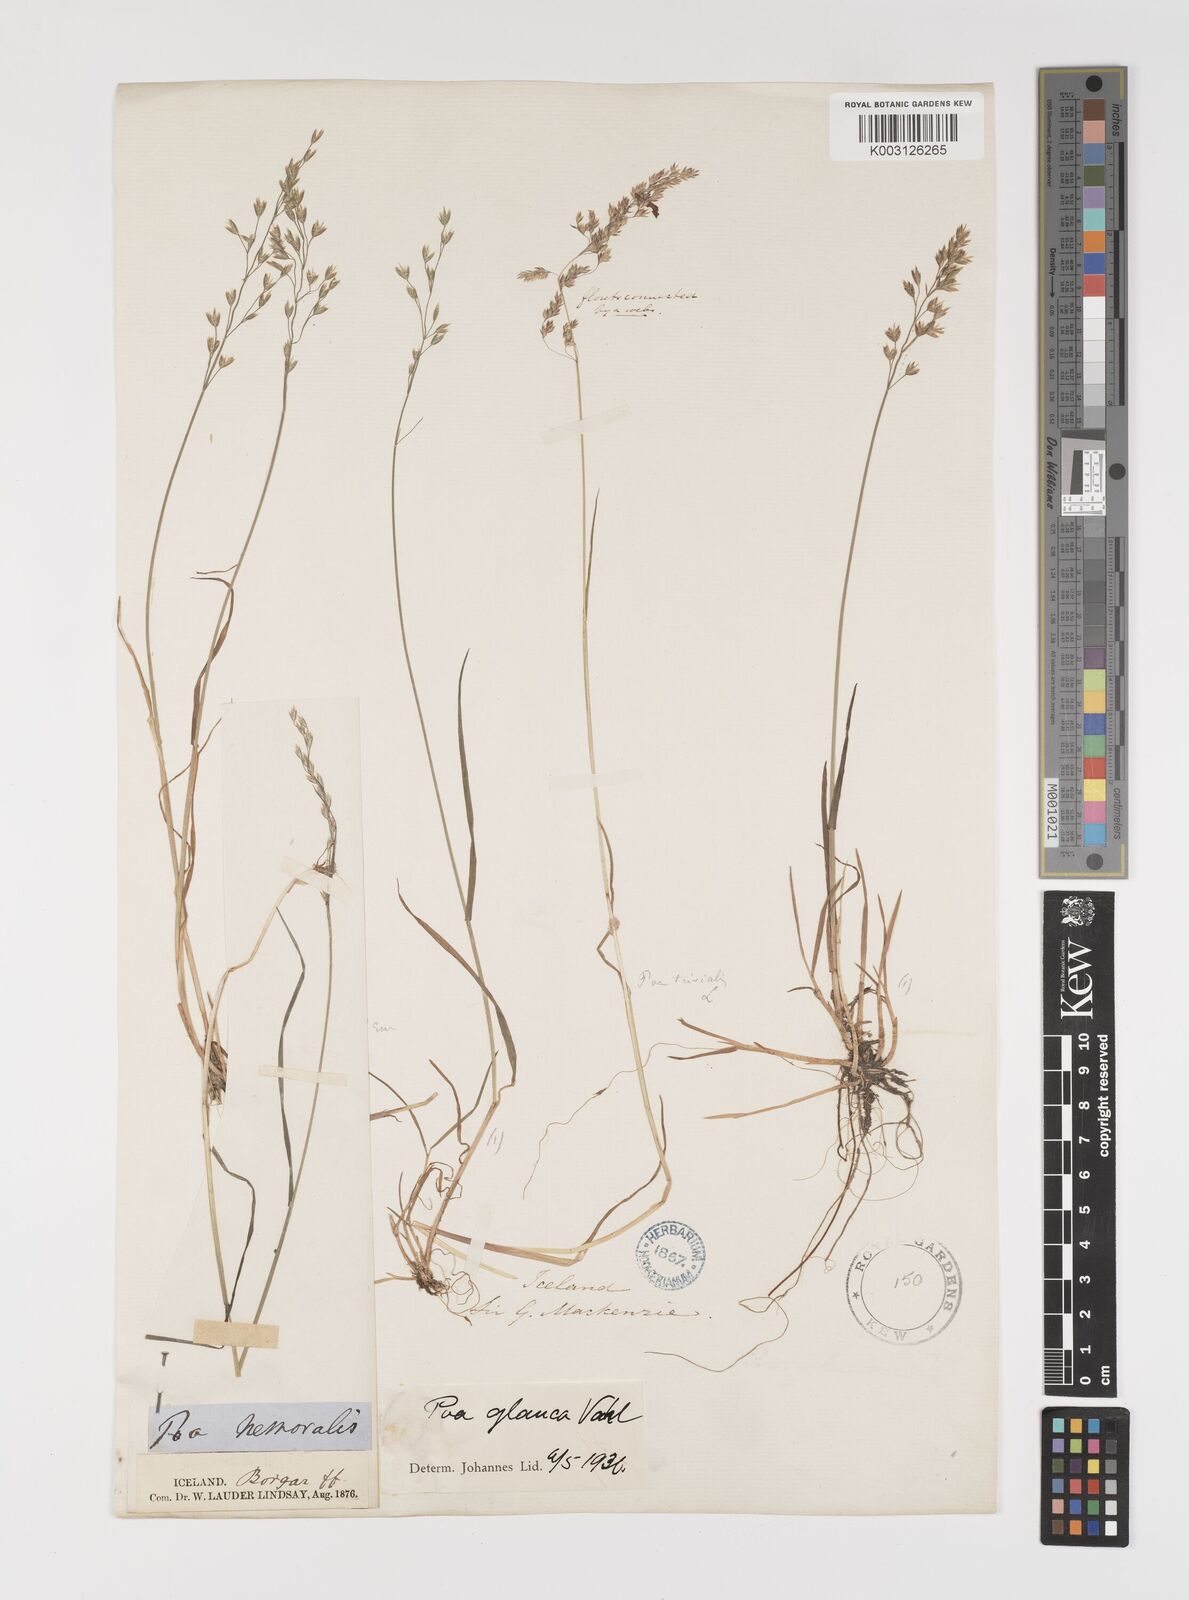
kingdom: Plantae
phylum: Tracheophyta
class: Liliopsida
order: Poales
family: Poaceae
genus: Poa
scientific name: Poa glauca
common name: Glaucous bluegrass
